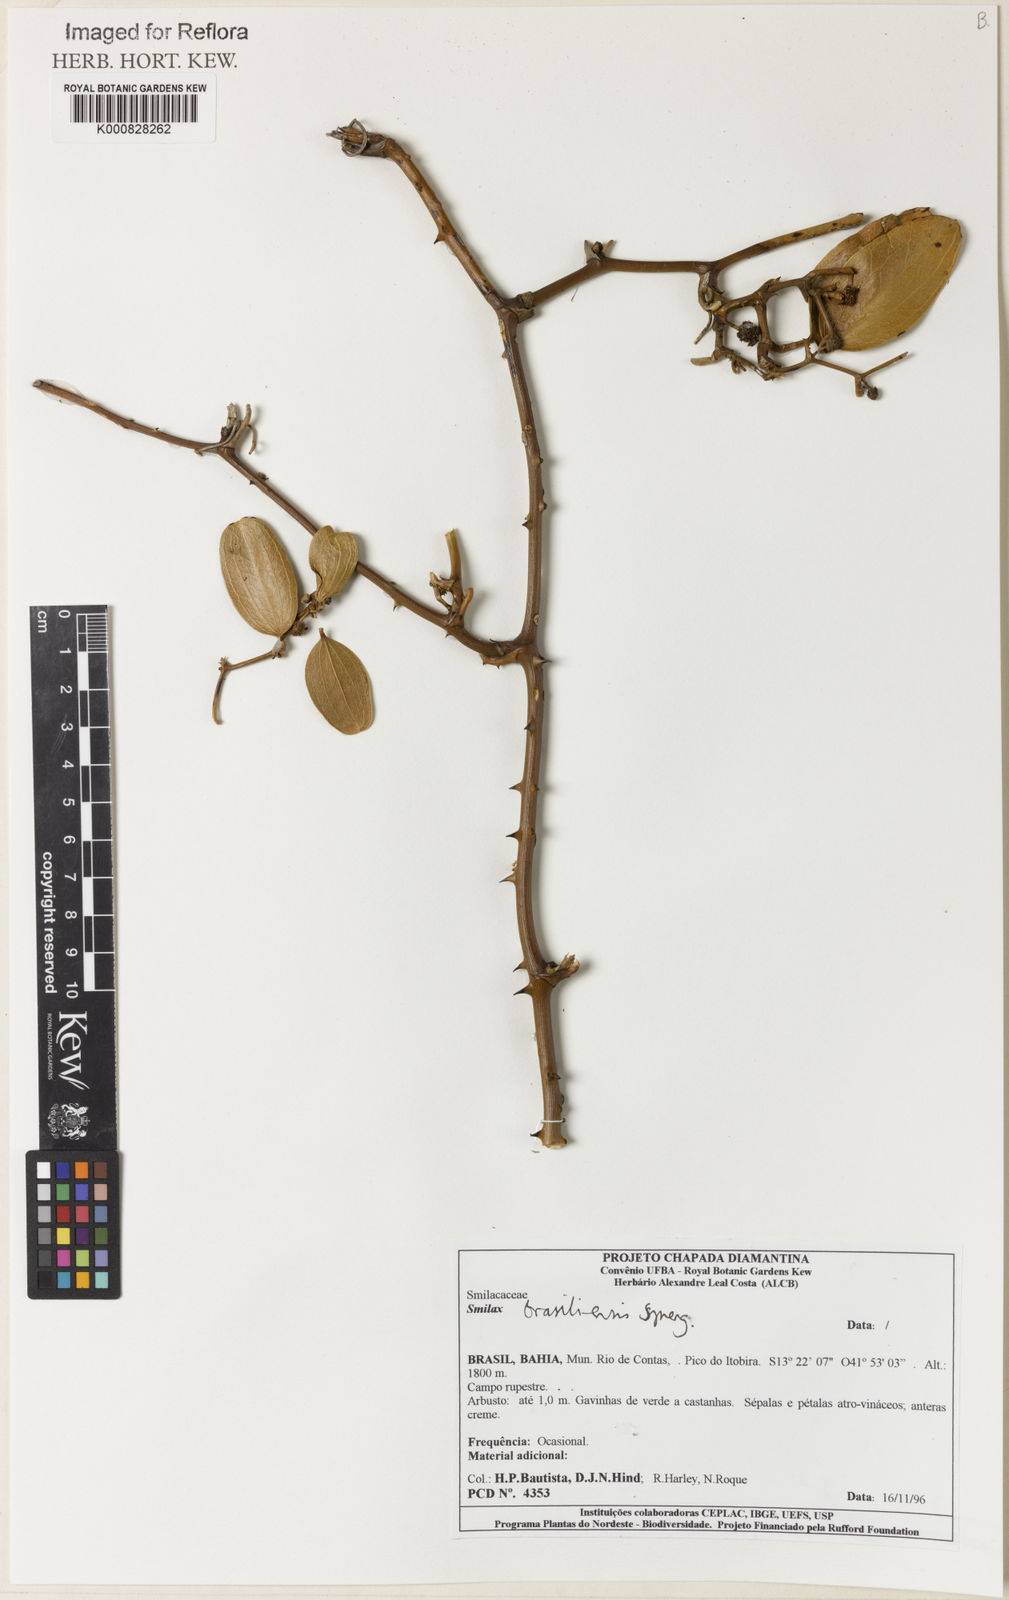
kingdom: Plantae
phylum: Tracheophyta
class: Liliopsida
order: Liliales
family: Smilacaceae
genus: Smilax
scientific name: Smilax brasiliensis
